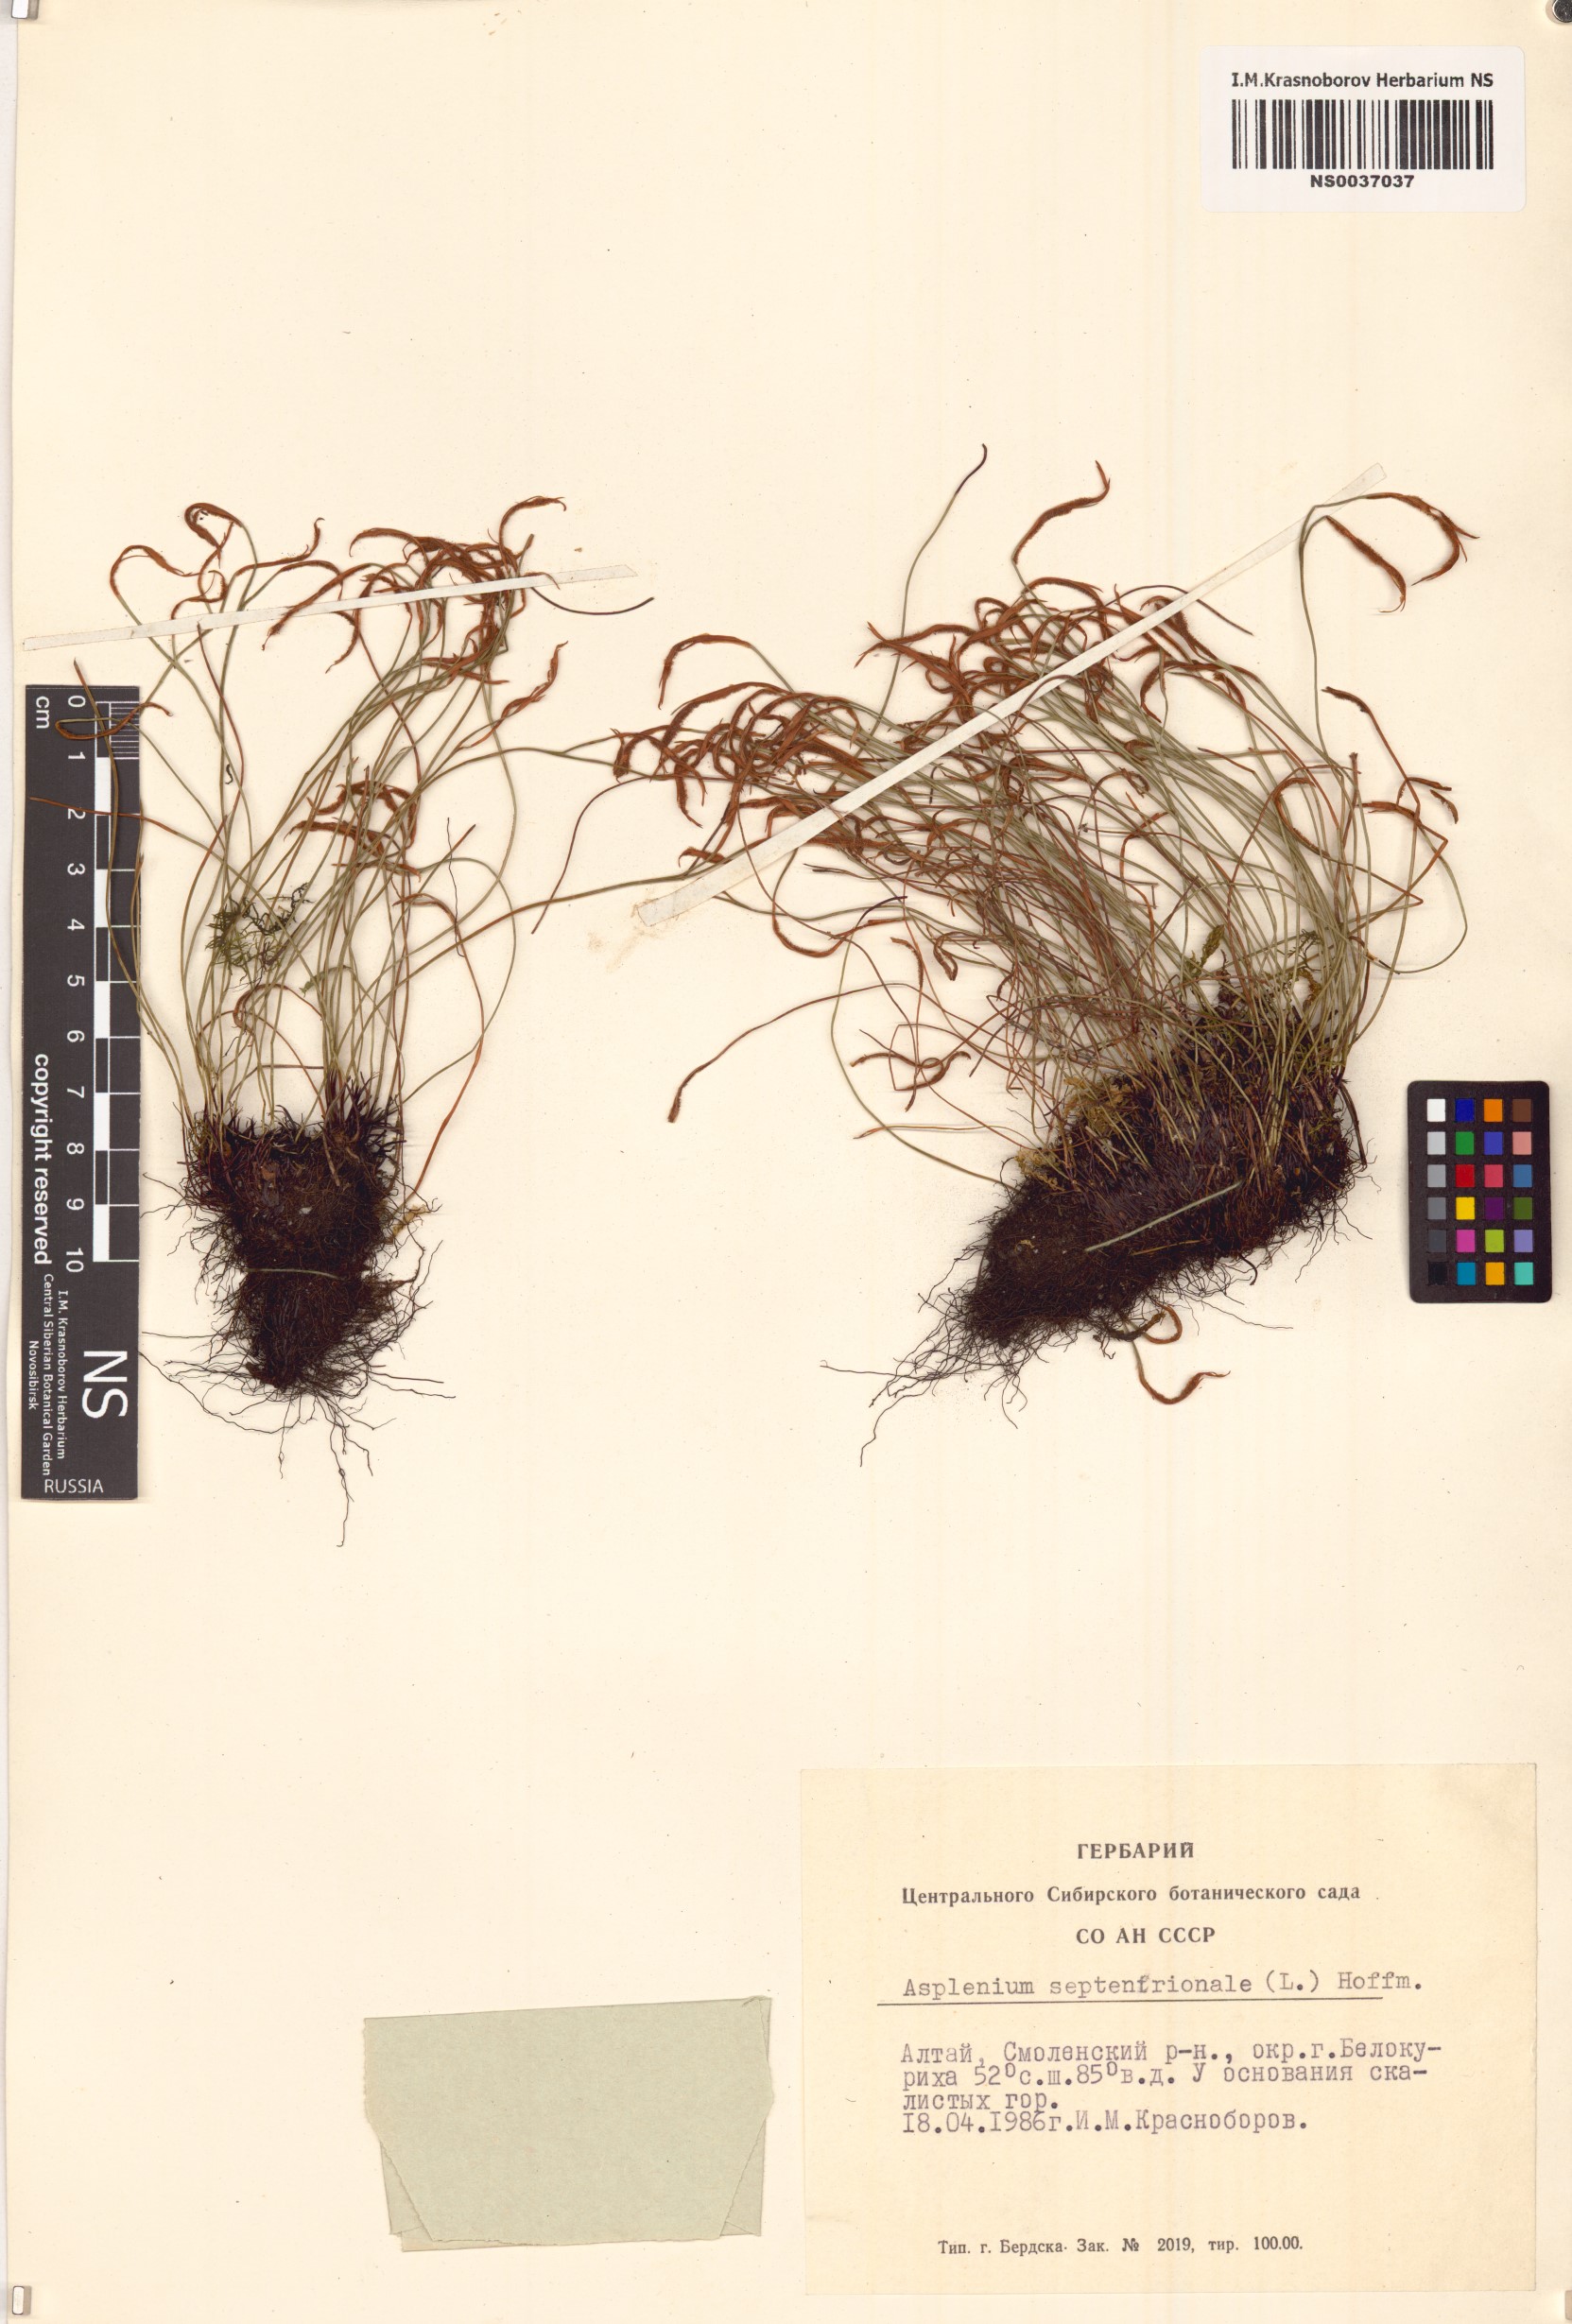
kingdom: Plantae
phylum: Tracheophyta
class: Polypodiopsida
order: Polypodiales
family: Aspleniaceae
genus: Asplenium
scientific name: Asplenium septentrionale
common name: Forked spleenwort
